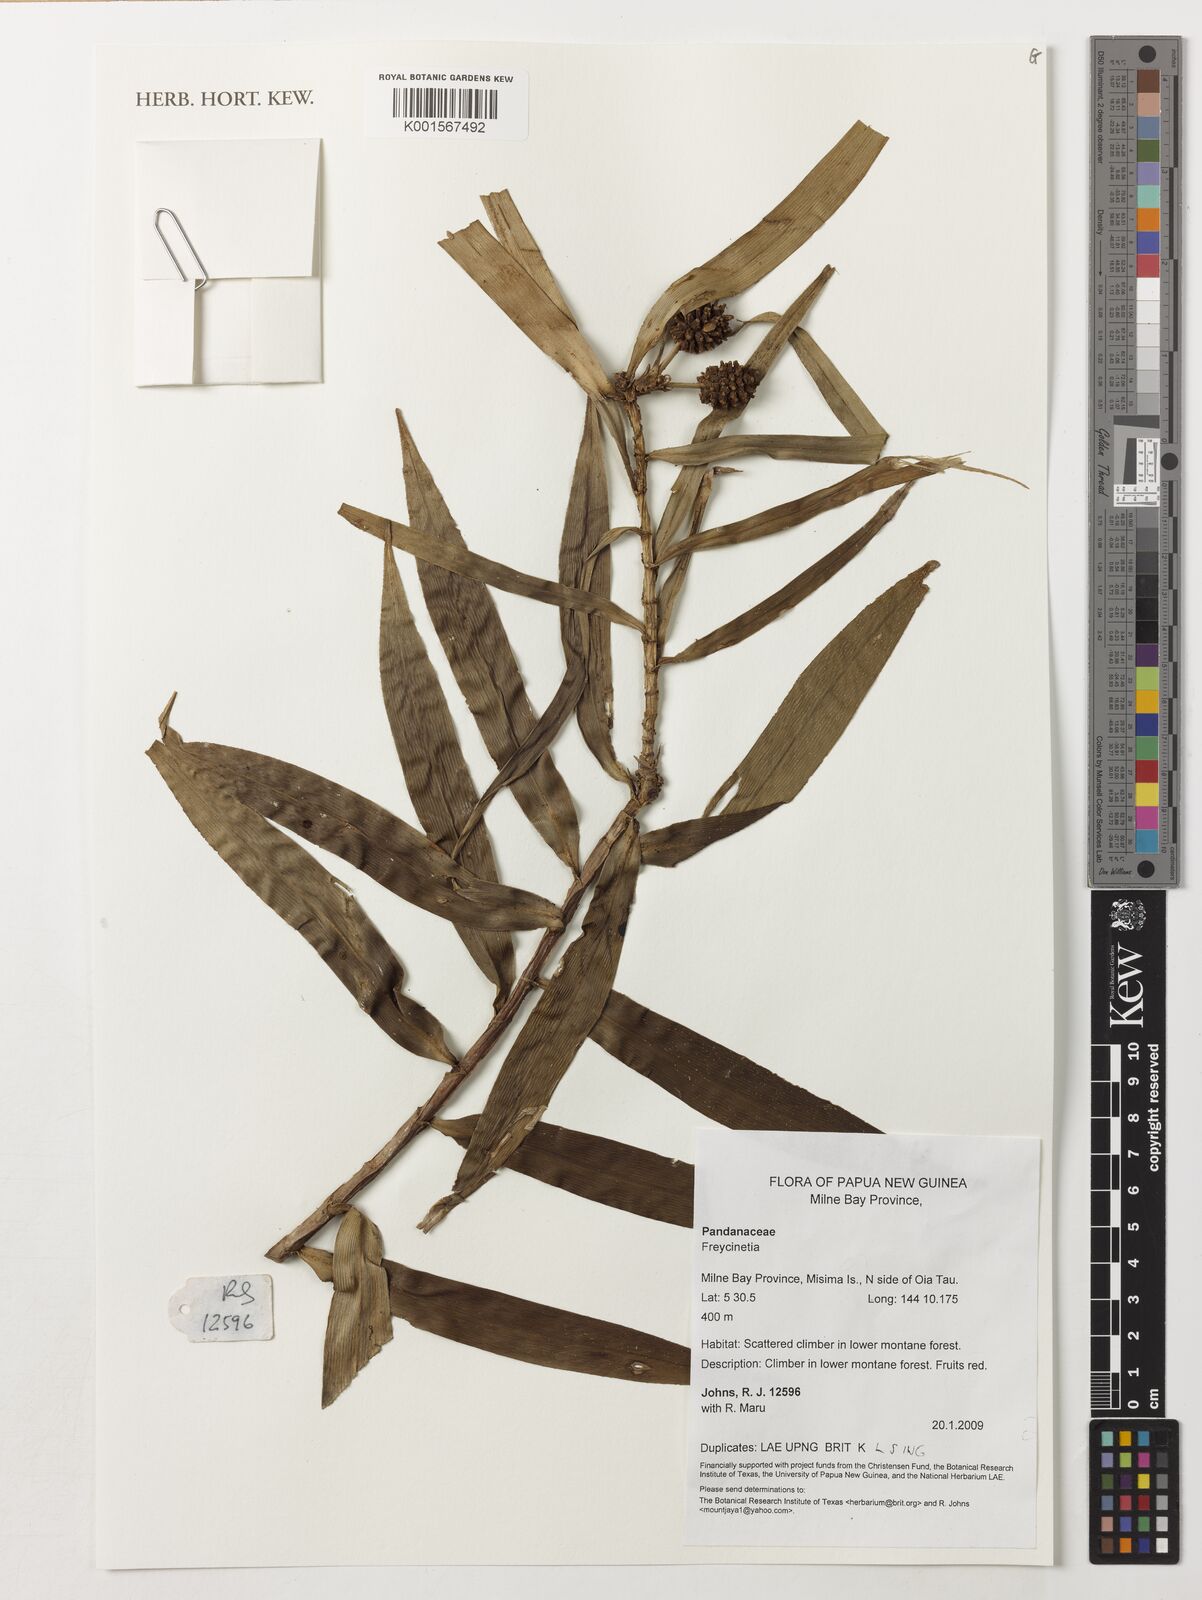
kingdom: Plantae
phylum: Tracheophyta
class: Liliopsida
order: Pandanales
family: Pandanaceae
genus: Freycinetia
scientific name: Freycinetia
